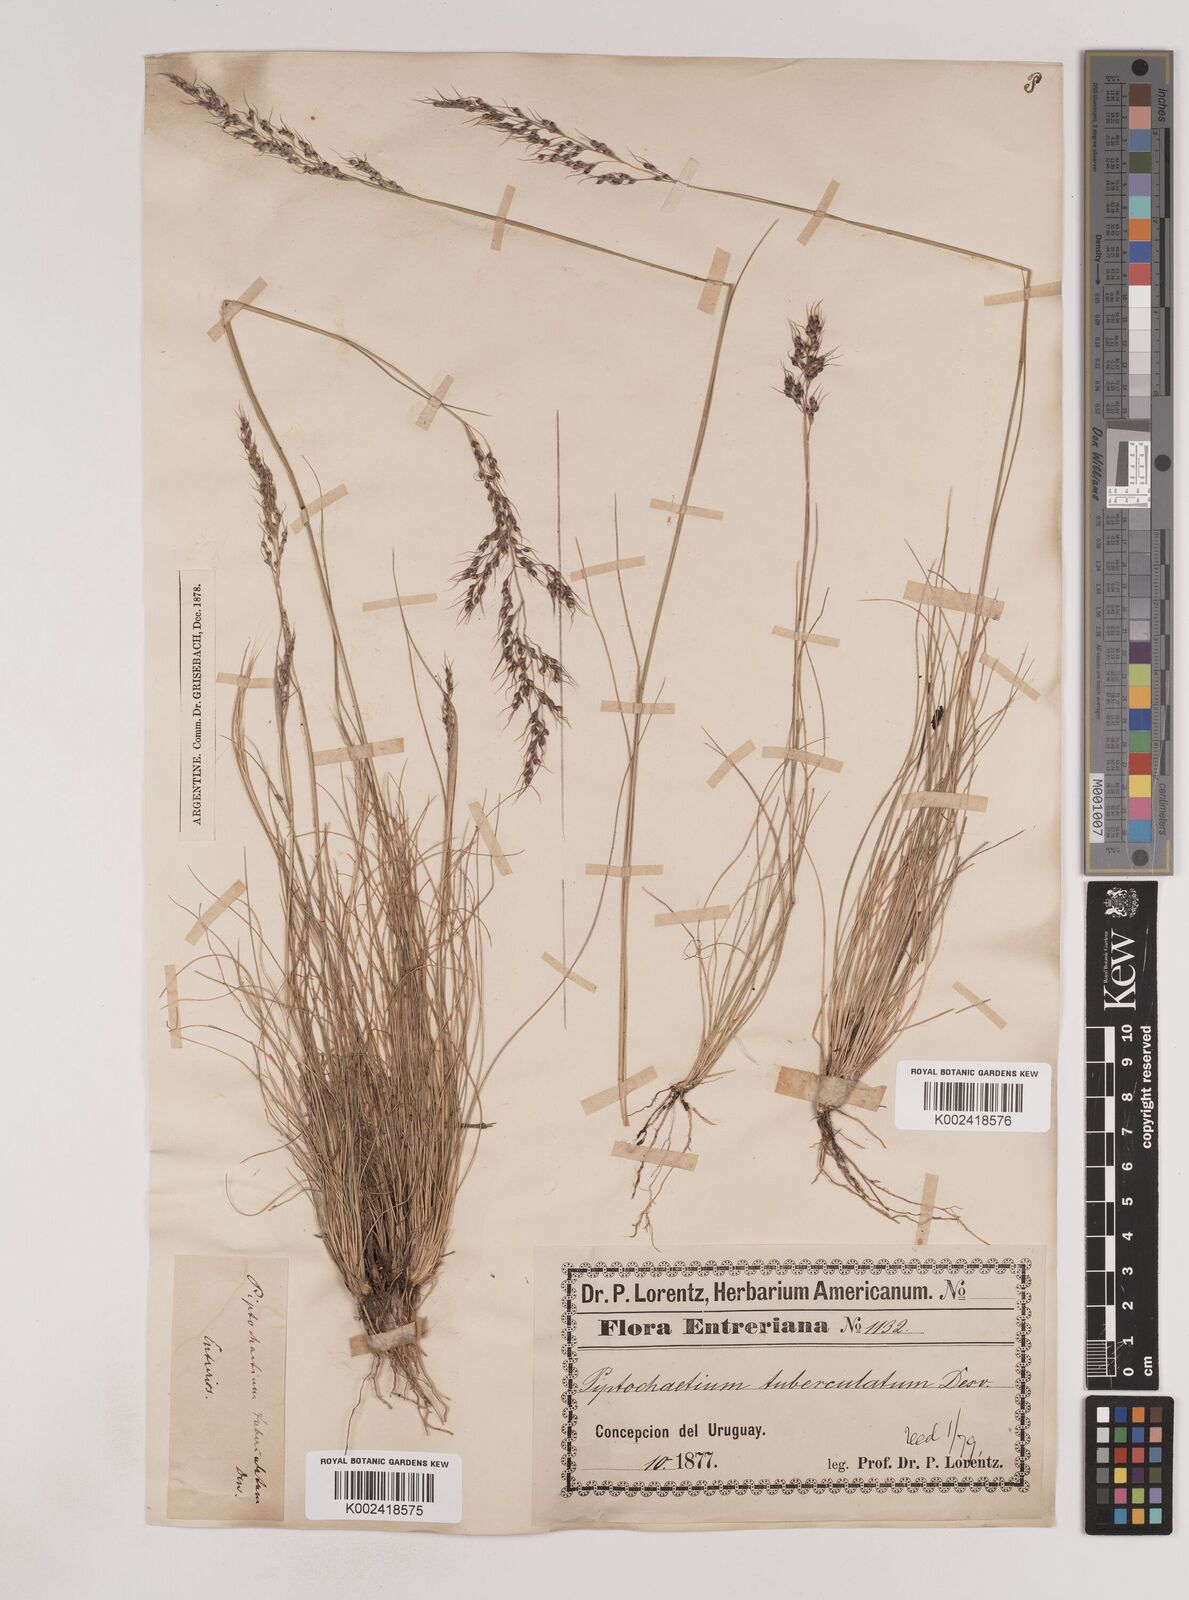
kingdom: Plantae
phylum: Tracheophyta
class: Liliopsida
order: Poales
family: Poaceae
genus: Piptochaetium
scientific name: Piptochaetium montevidense
